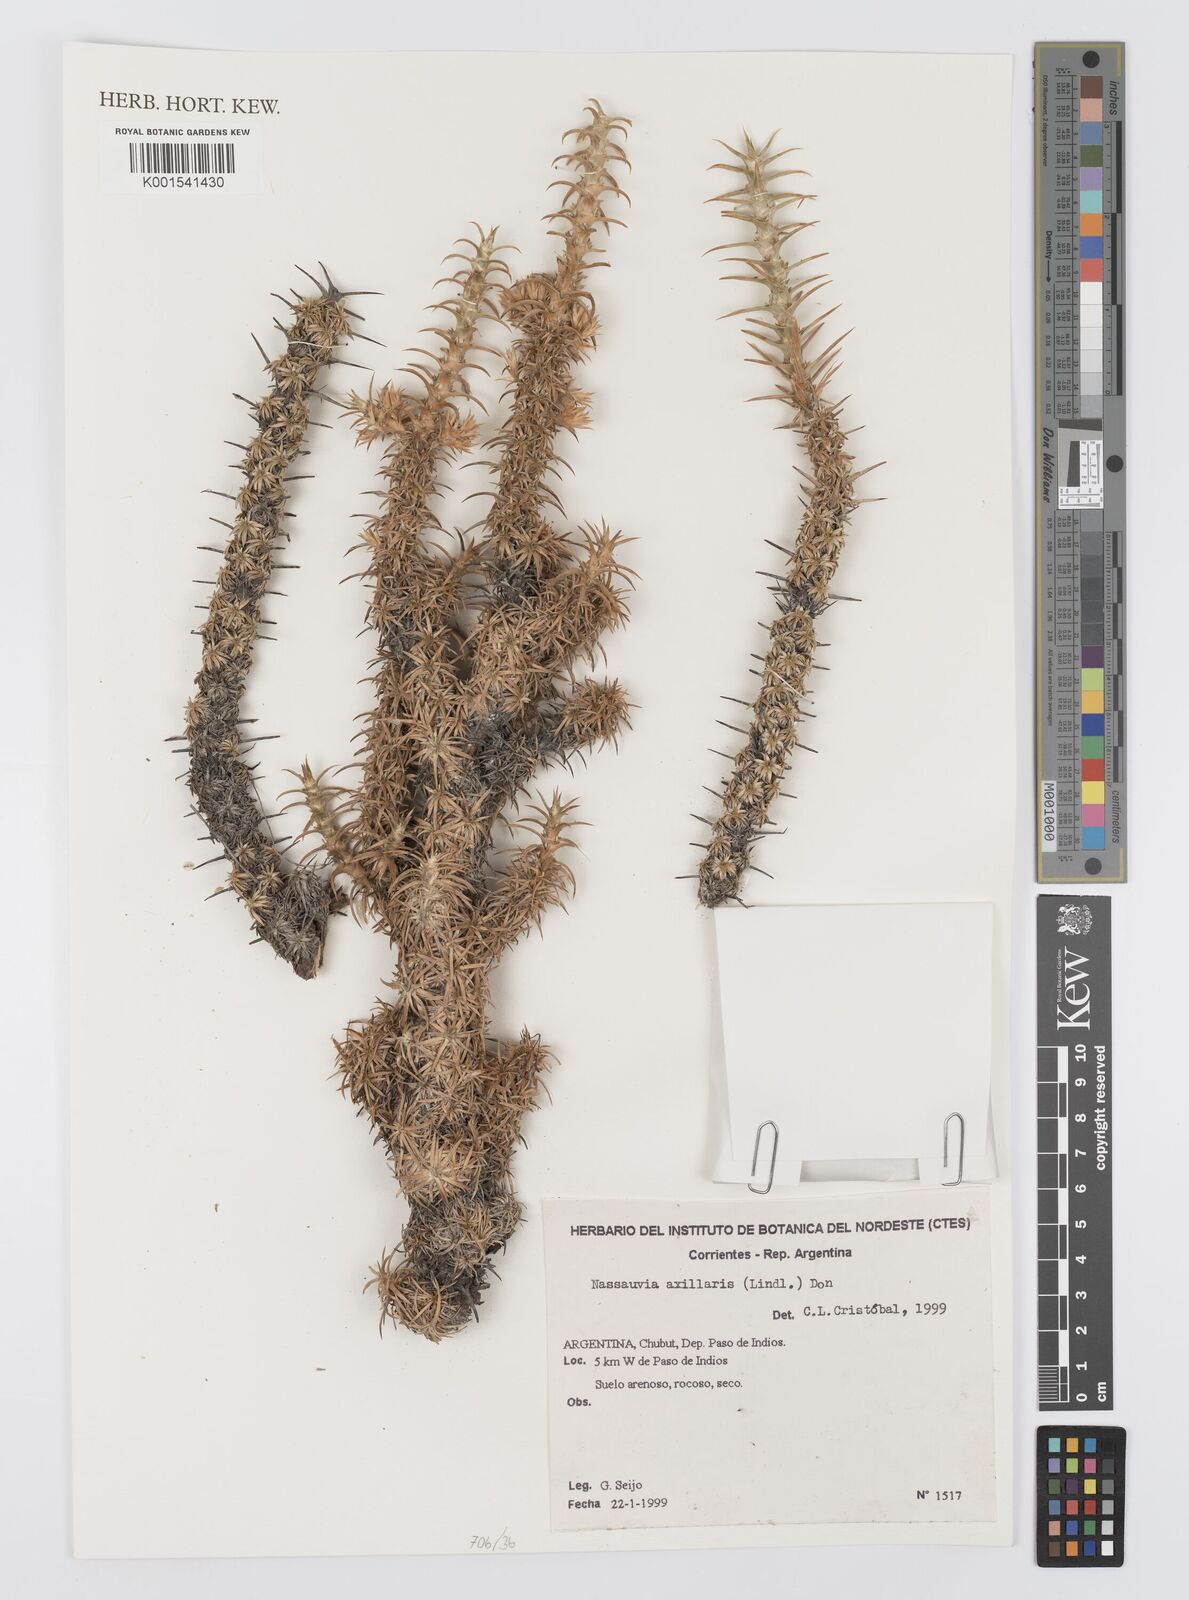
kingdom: Plantae
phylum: Tracheophyta
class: Magnoliopsida
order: Asterales
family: Asteraceae
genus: Nassauvia
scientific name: Nassauvia axillaris
